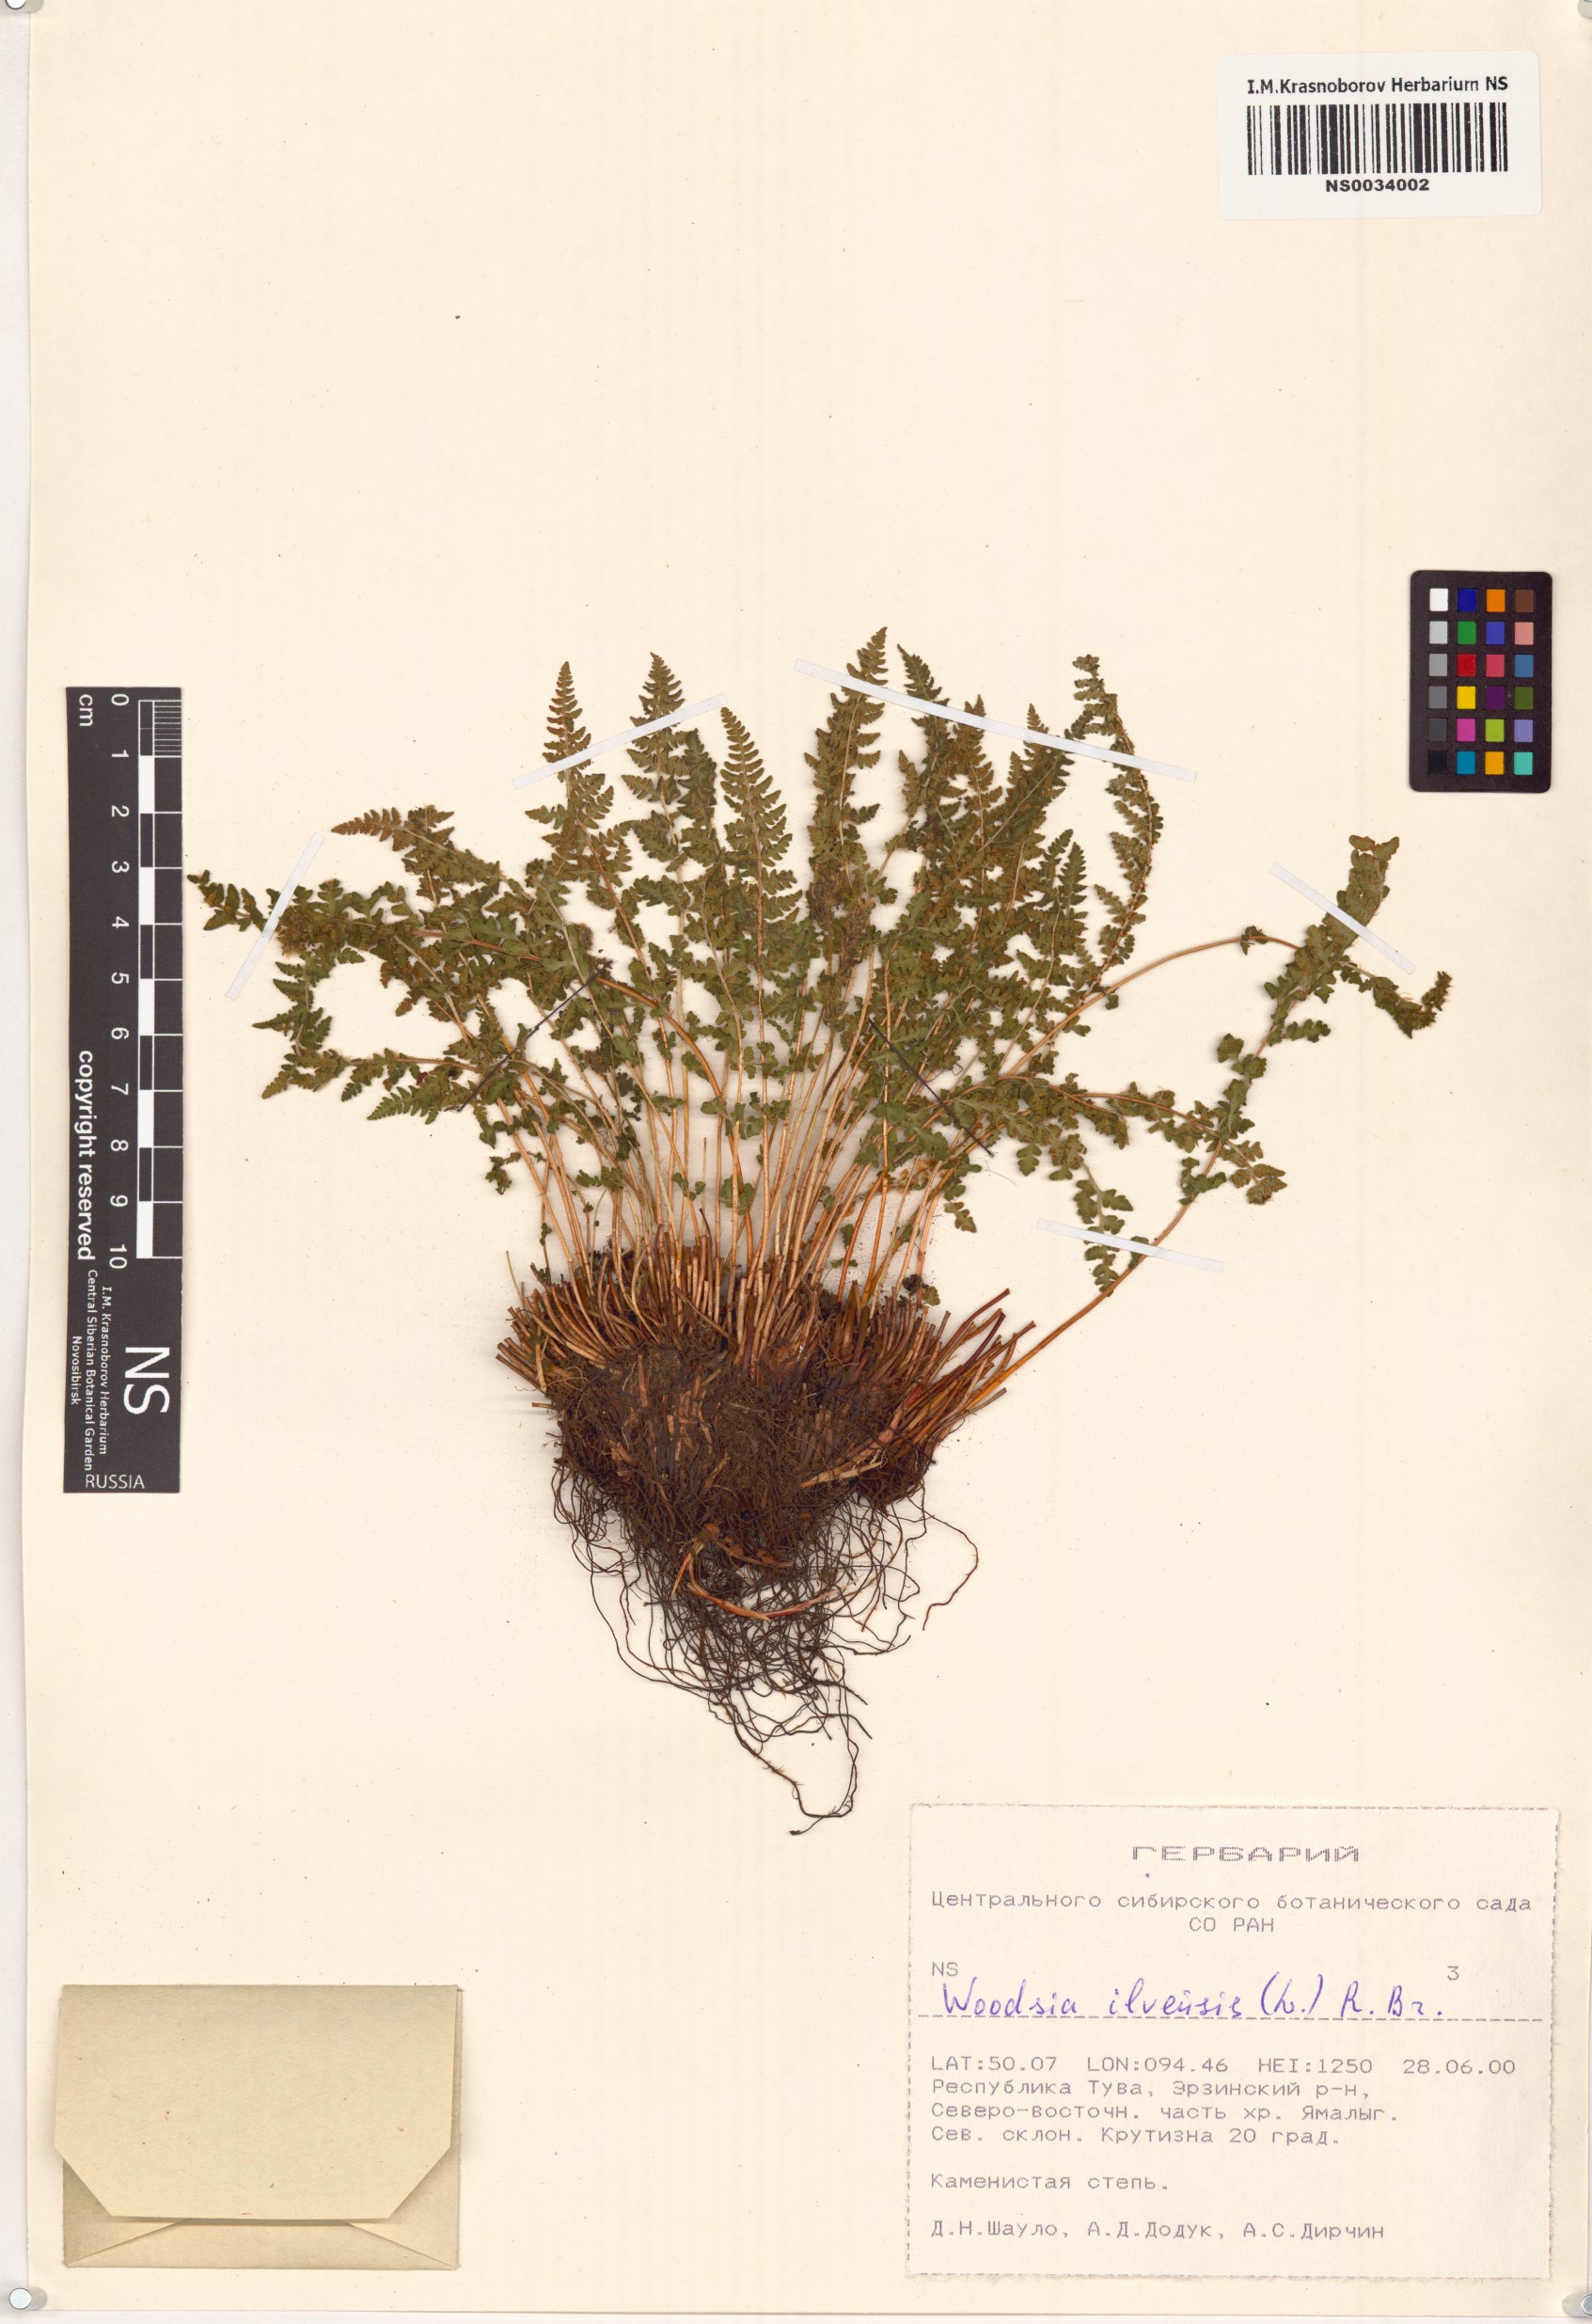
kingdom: Plantae
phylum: Tracheophyta
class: Polypodiopsida
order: Polypodiales
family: Woodsiaceae
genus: Woodsia
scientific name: Woodsia ilvensis
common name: Fragrant woodsia
